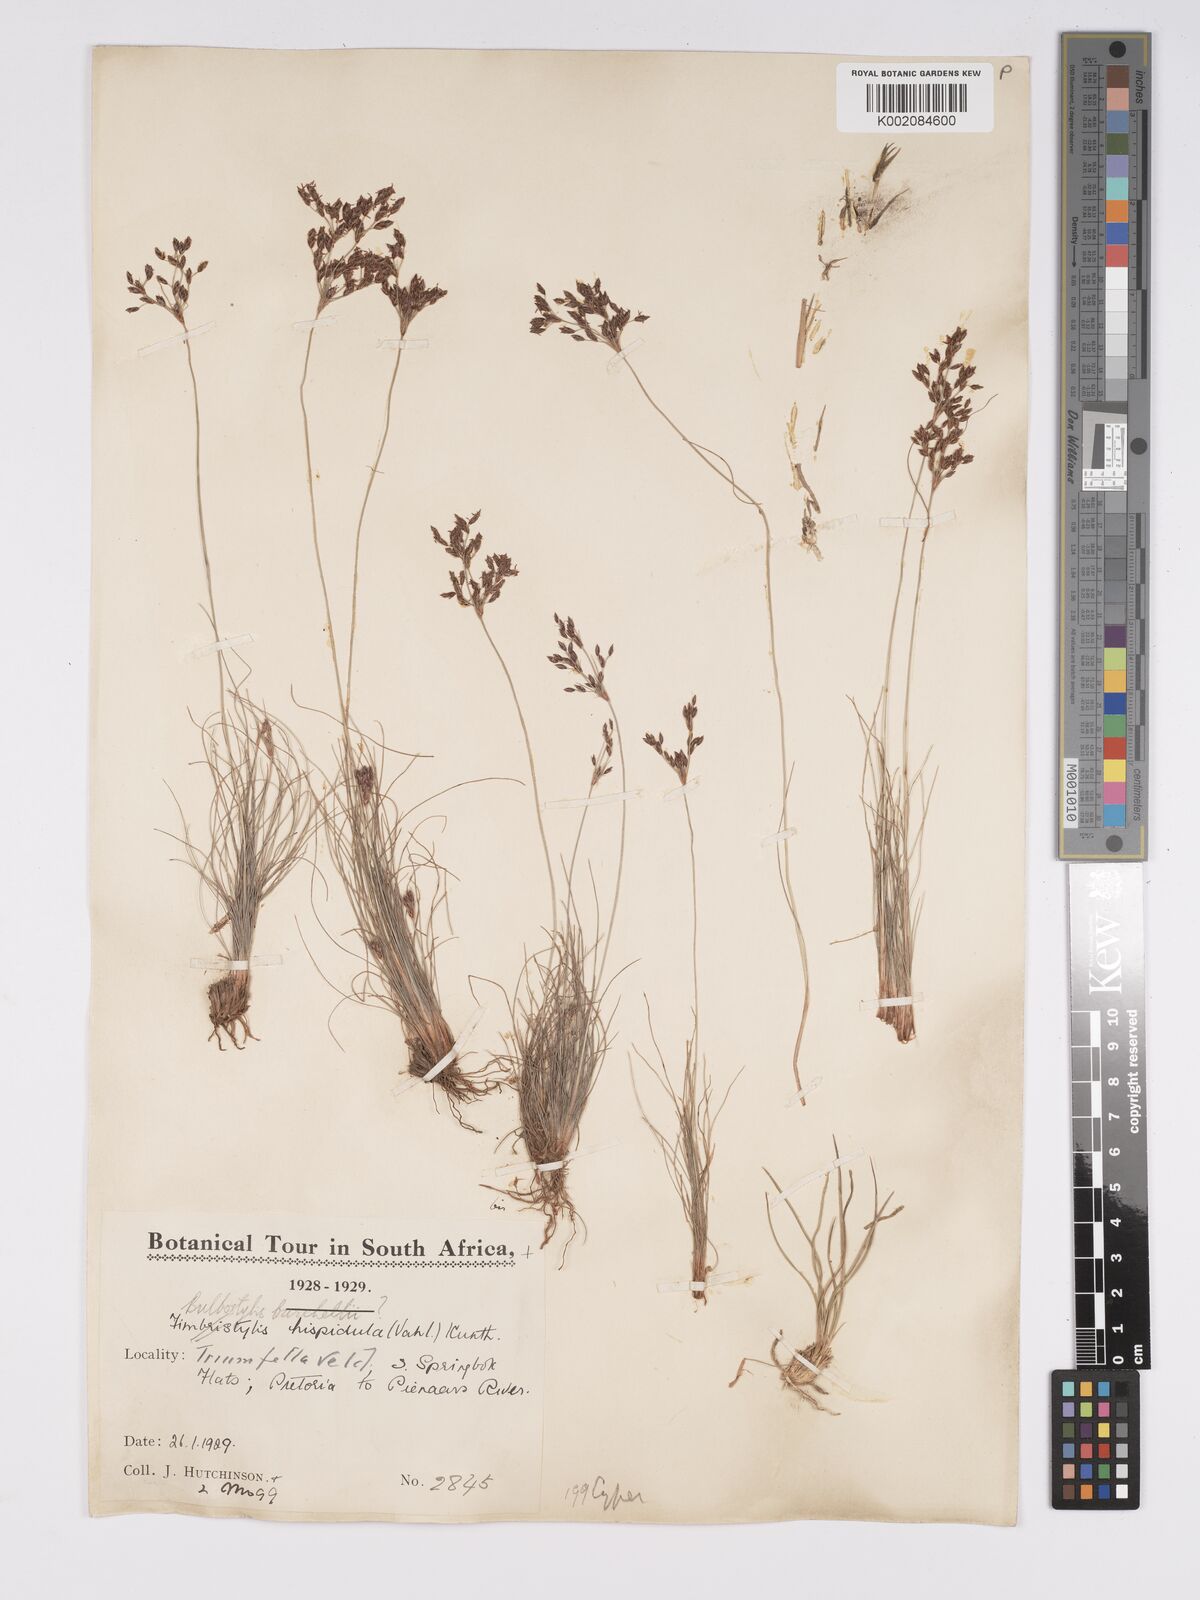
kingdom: Plantae
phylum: Tracheophyta
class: Liliopsida
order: Poales
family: Cyperaceae
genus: Bulbostylis
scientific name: Bulbostylis burchellii
